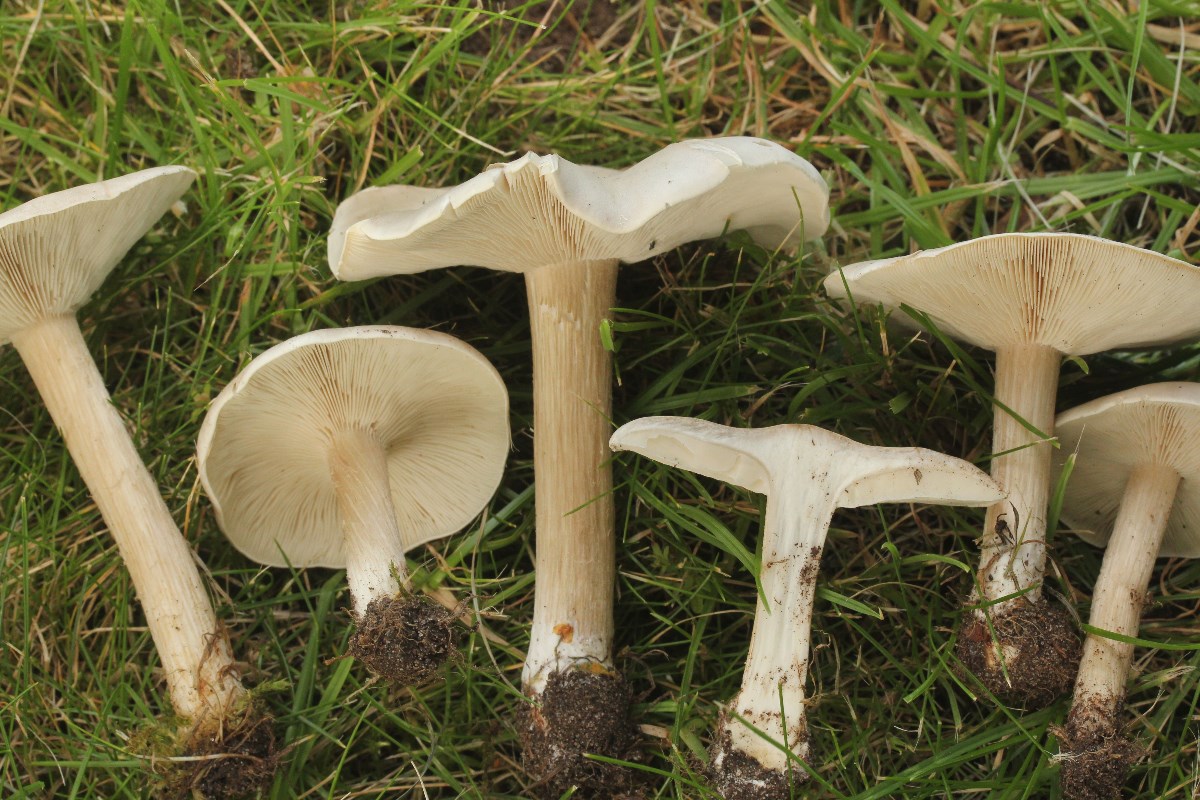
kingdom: Fungi
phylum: Basidiomycota
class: Agaricomycetes
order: Agaricales
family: Tricholomataceae
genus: Melanoleuca
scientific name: Melanoleuca rasilis
